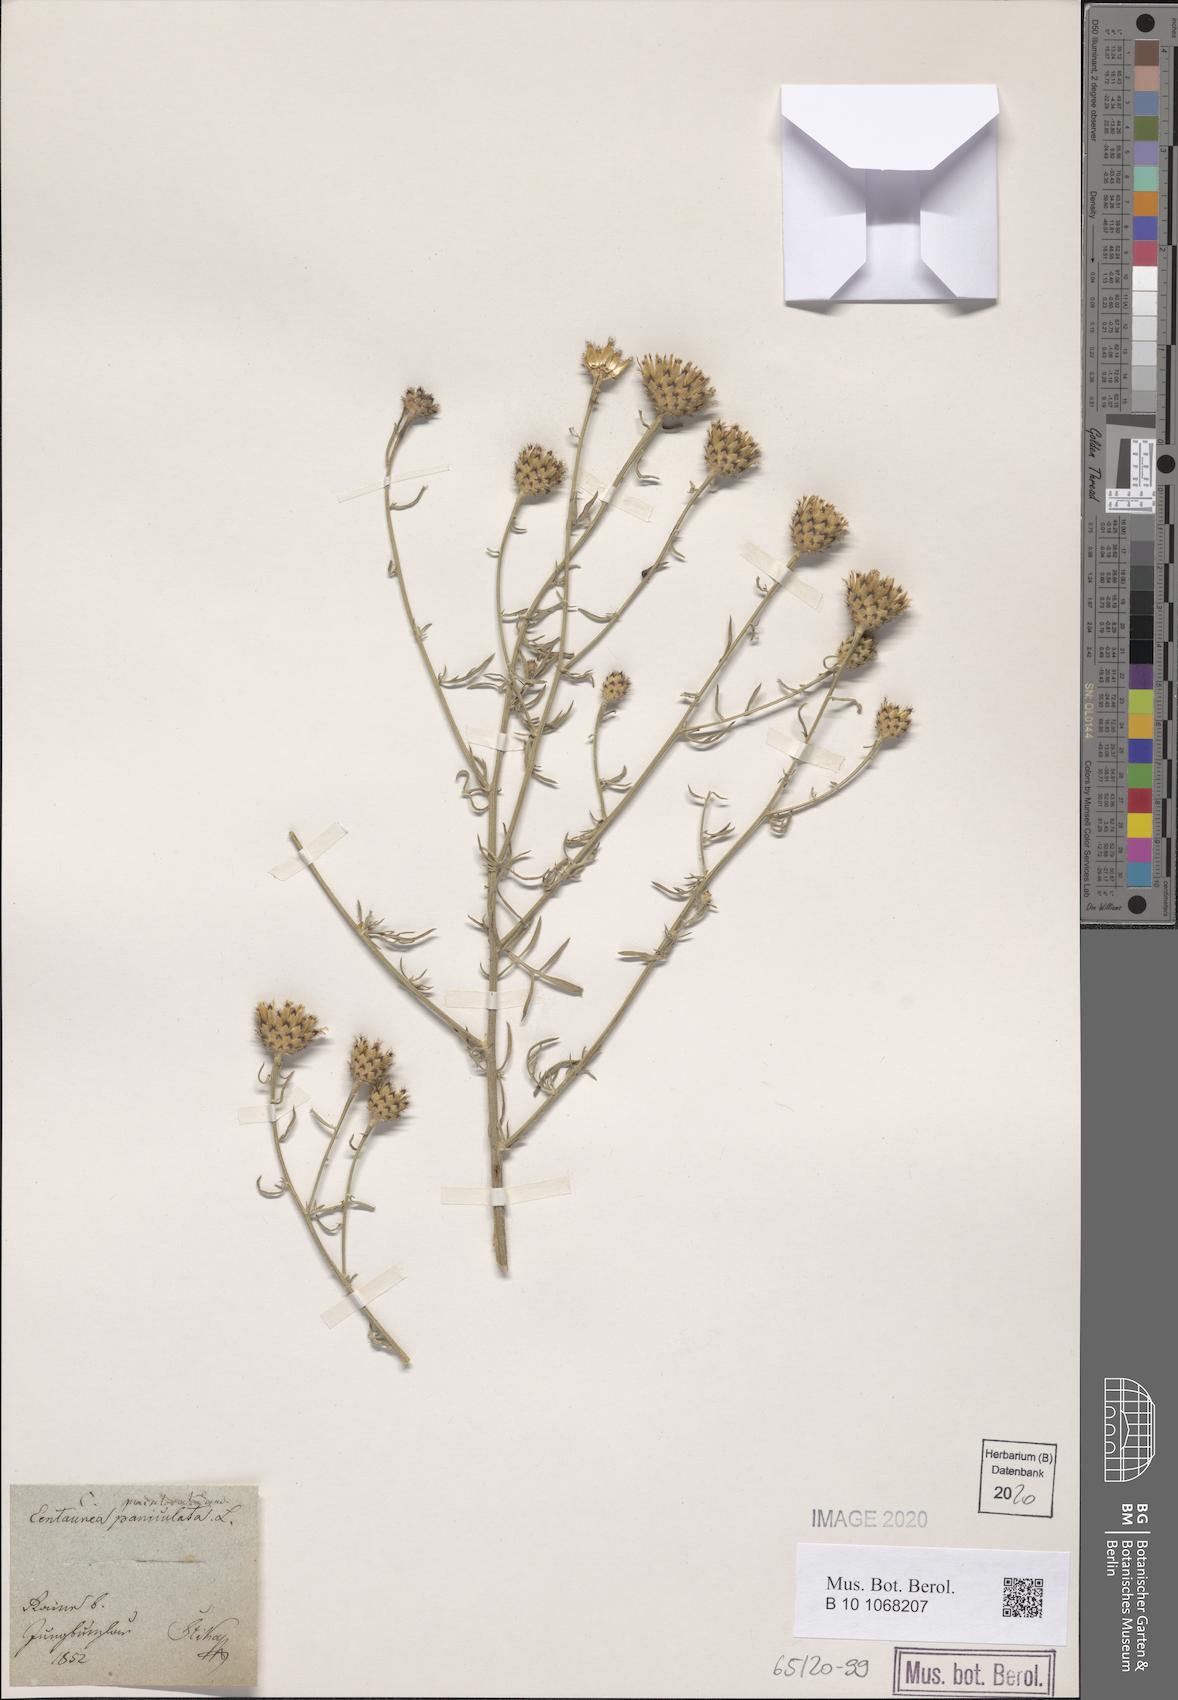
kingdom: Plantae
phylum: Tracheophyta
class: Magnoliopsida
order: Asterales
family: Asteraceae
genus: Centaurea
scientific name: Centaurea stoebe
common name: Spotted knapweed
